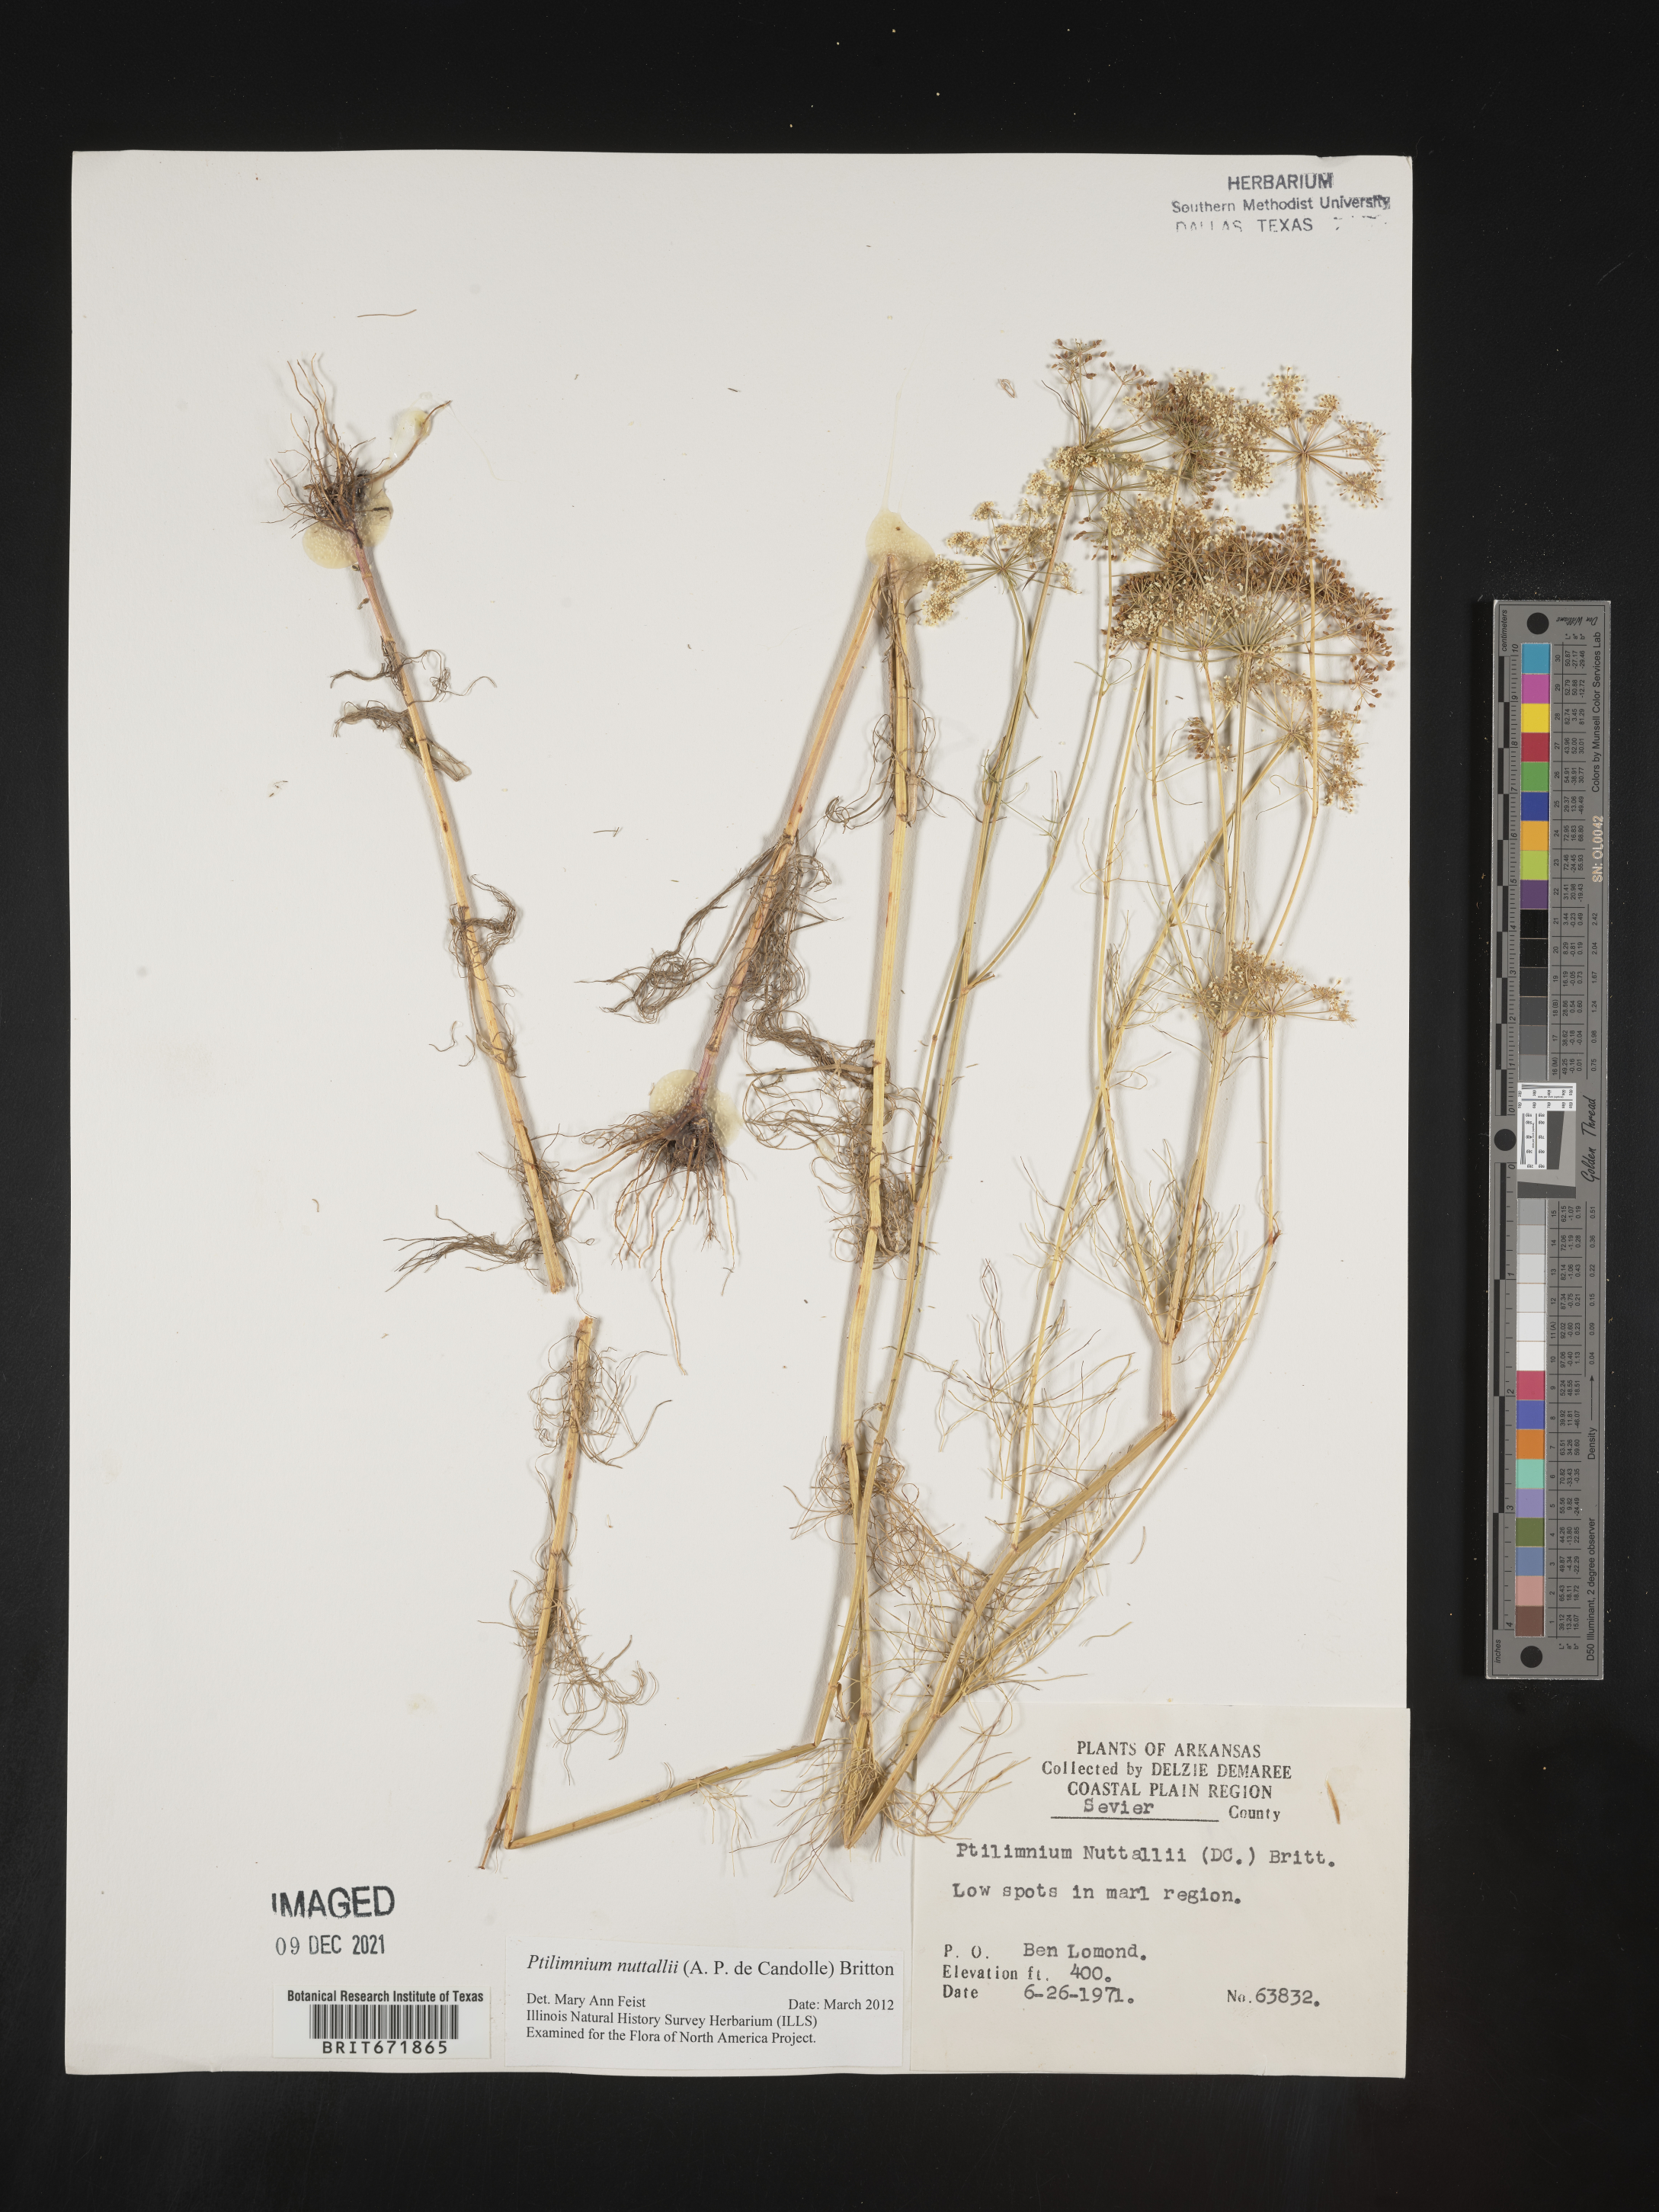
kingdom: Plantae
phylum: Tracheophyta
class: Magnoliopsida
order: Apiales
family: Apiaceae
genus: Ptilimnium
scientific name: Ptilimnium nuttallii
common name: Ozark bishop's-weed
